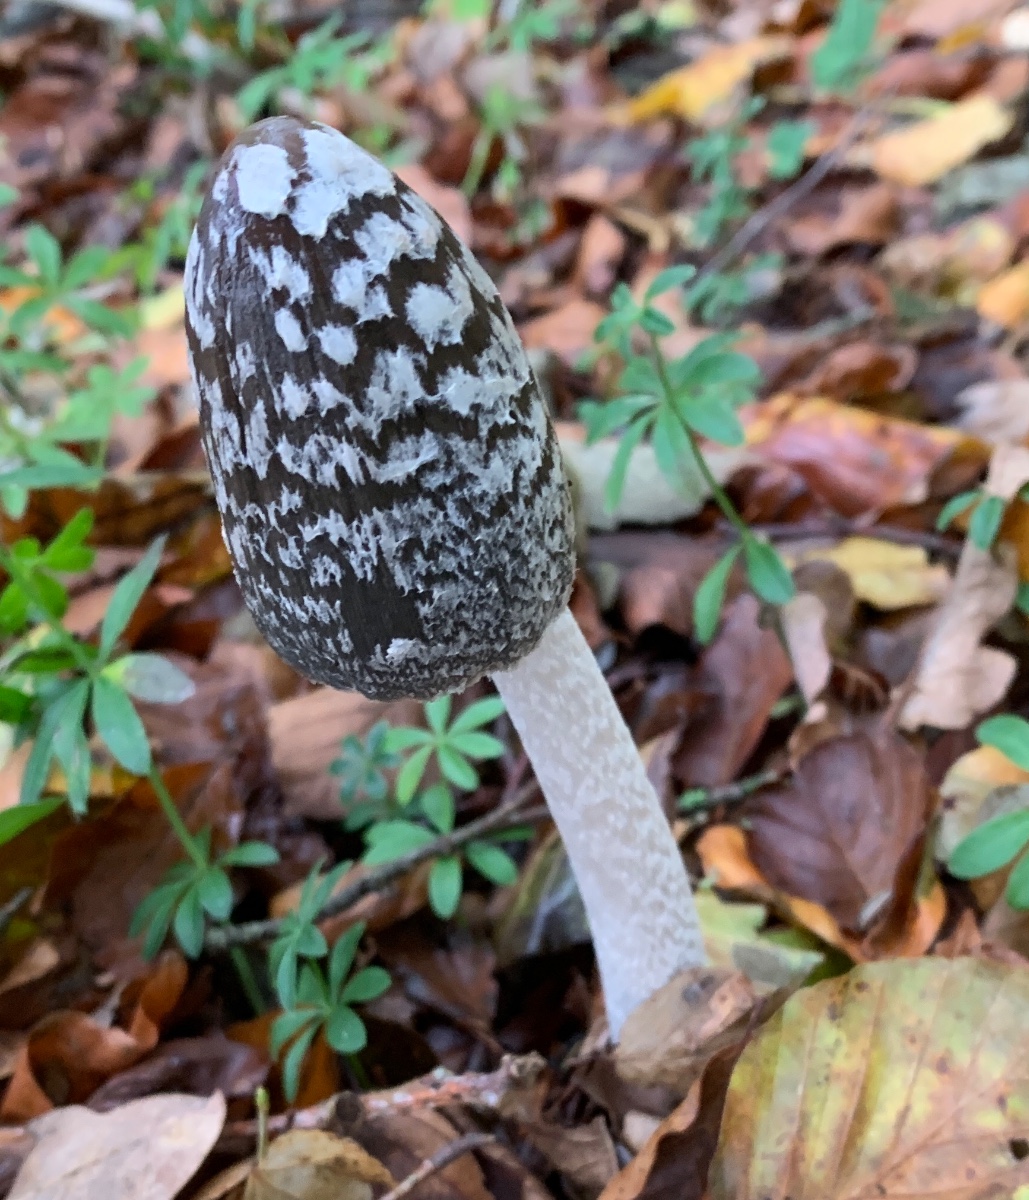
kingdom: Fungi
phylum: Basidiomycota
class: Agaricomycetes
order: Agaricales
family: Psathyrellaceae
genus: Coprinopsis
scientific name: Coprinopsis picacea
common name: skade-blækhat
